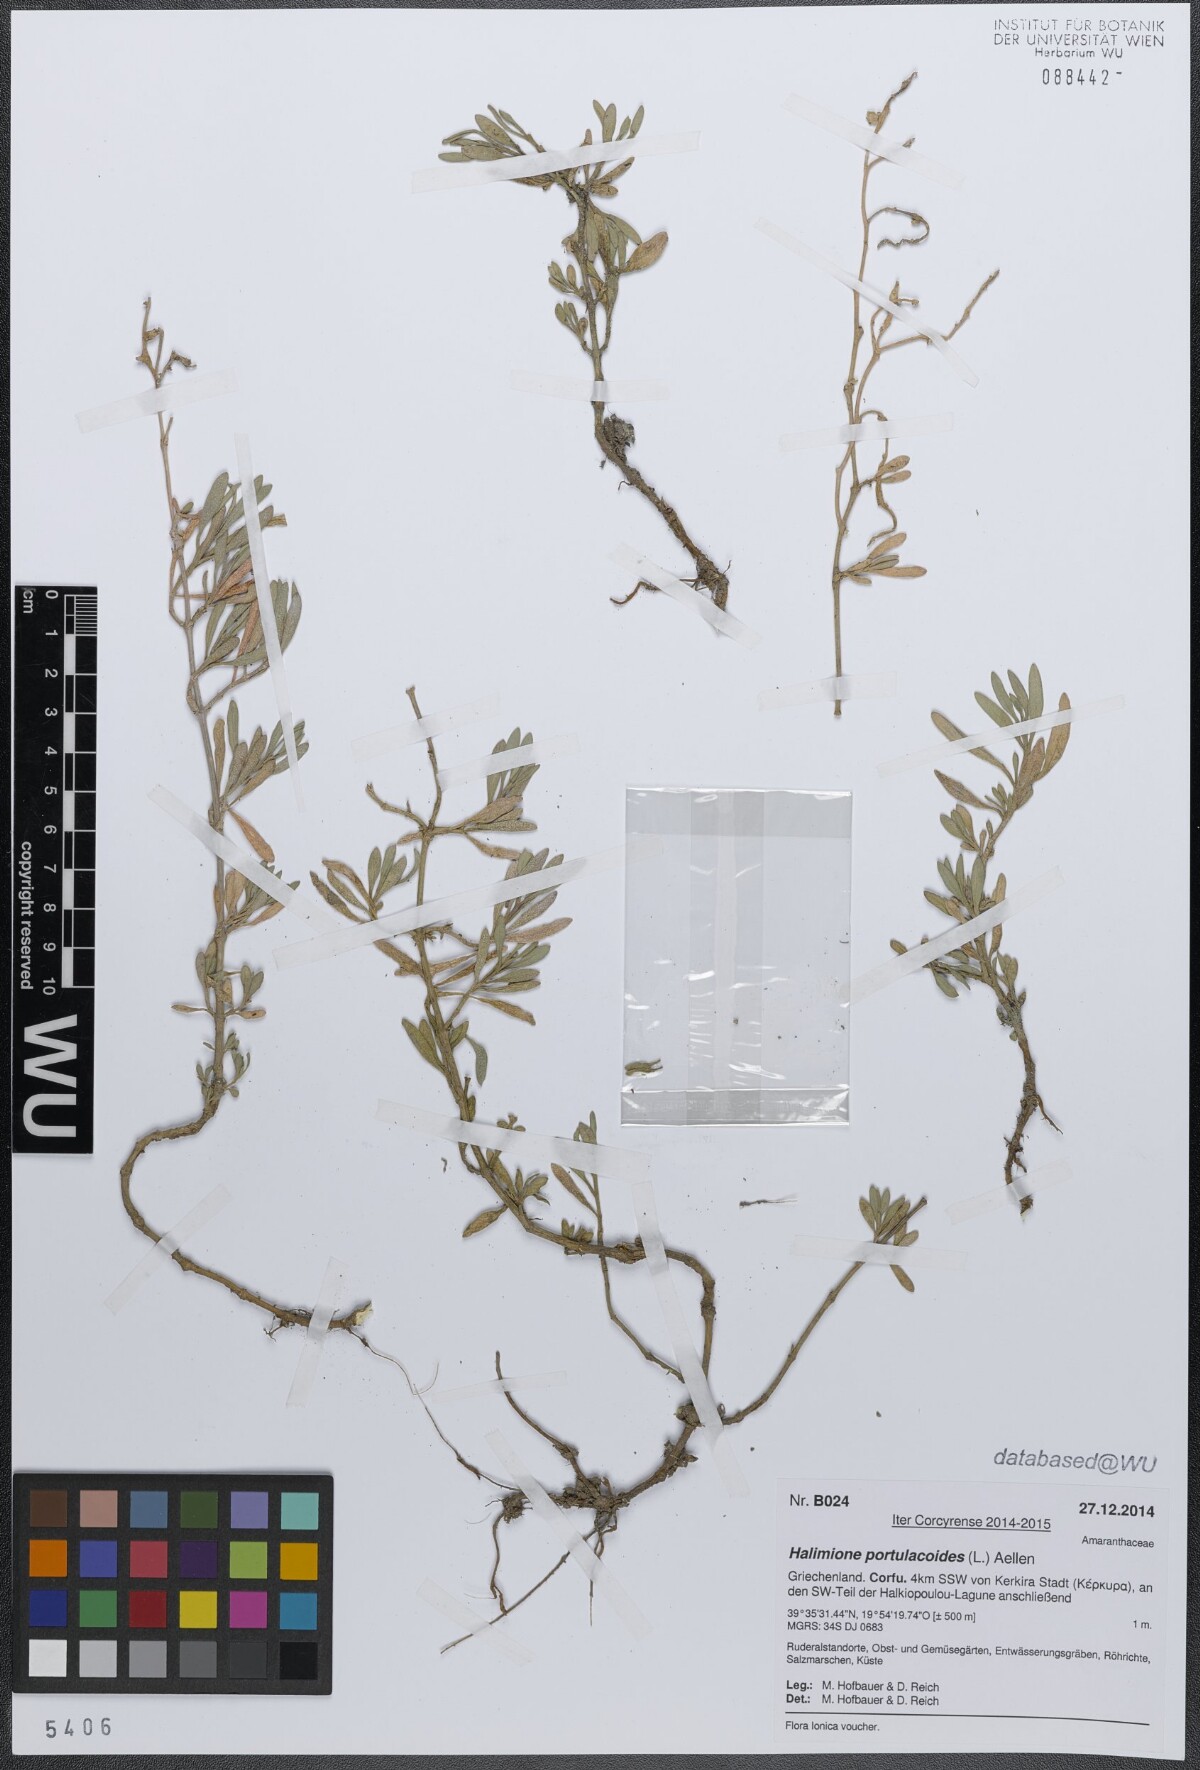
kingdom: Plantae
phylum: Tracheophyta
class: Magnoliopsida
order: Caryophyllales
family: Amaranthaceae
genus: Halimione
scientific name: Halimione portulacoides
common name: Sea-purslane
